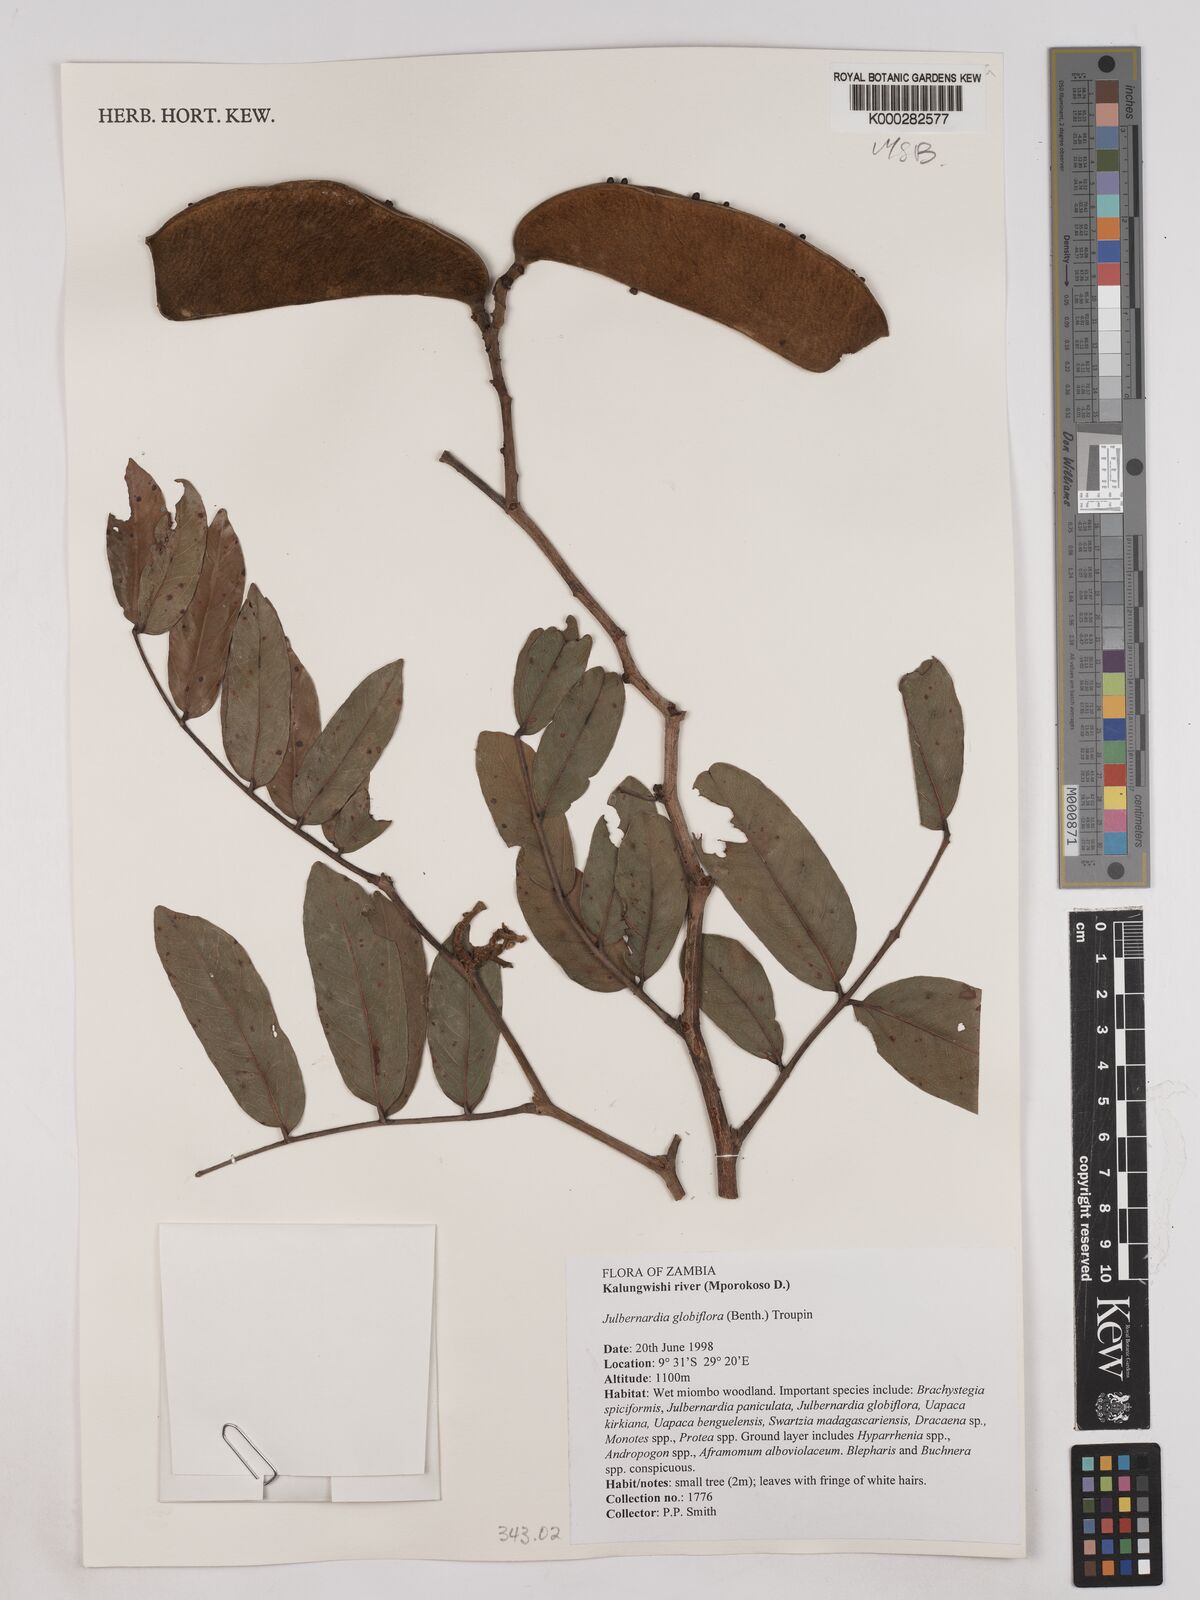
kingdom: Plantae
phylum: Tracheophyta
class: Magnoliopsida
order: Fabales
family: Fabaceae
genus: Julbernardia
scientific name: Julbernardia globiflora
